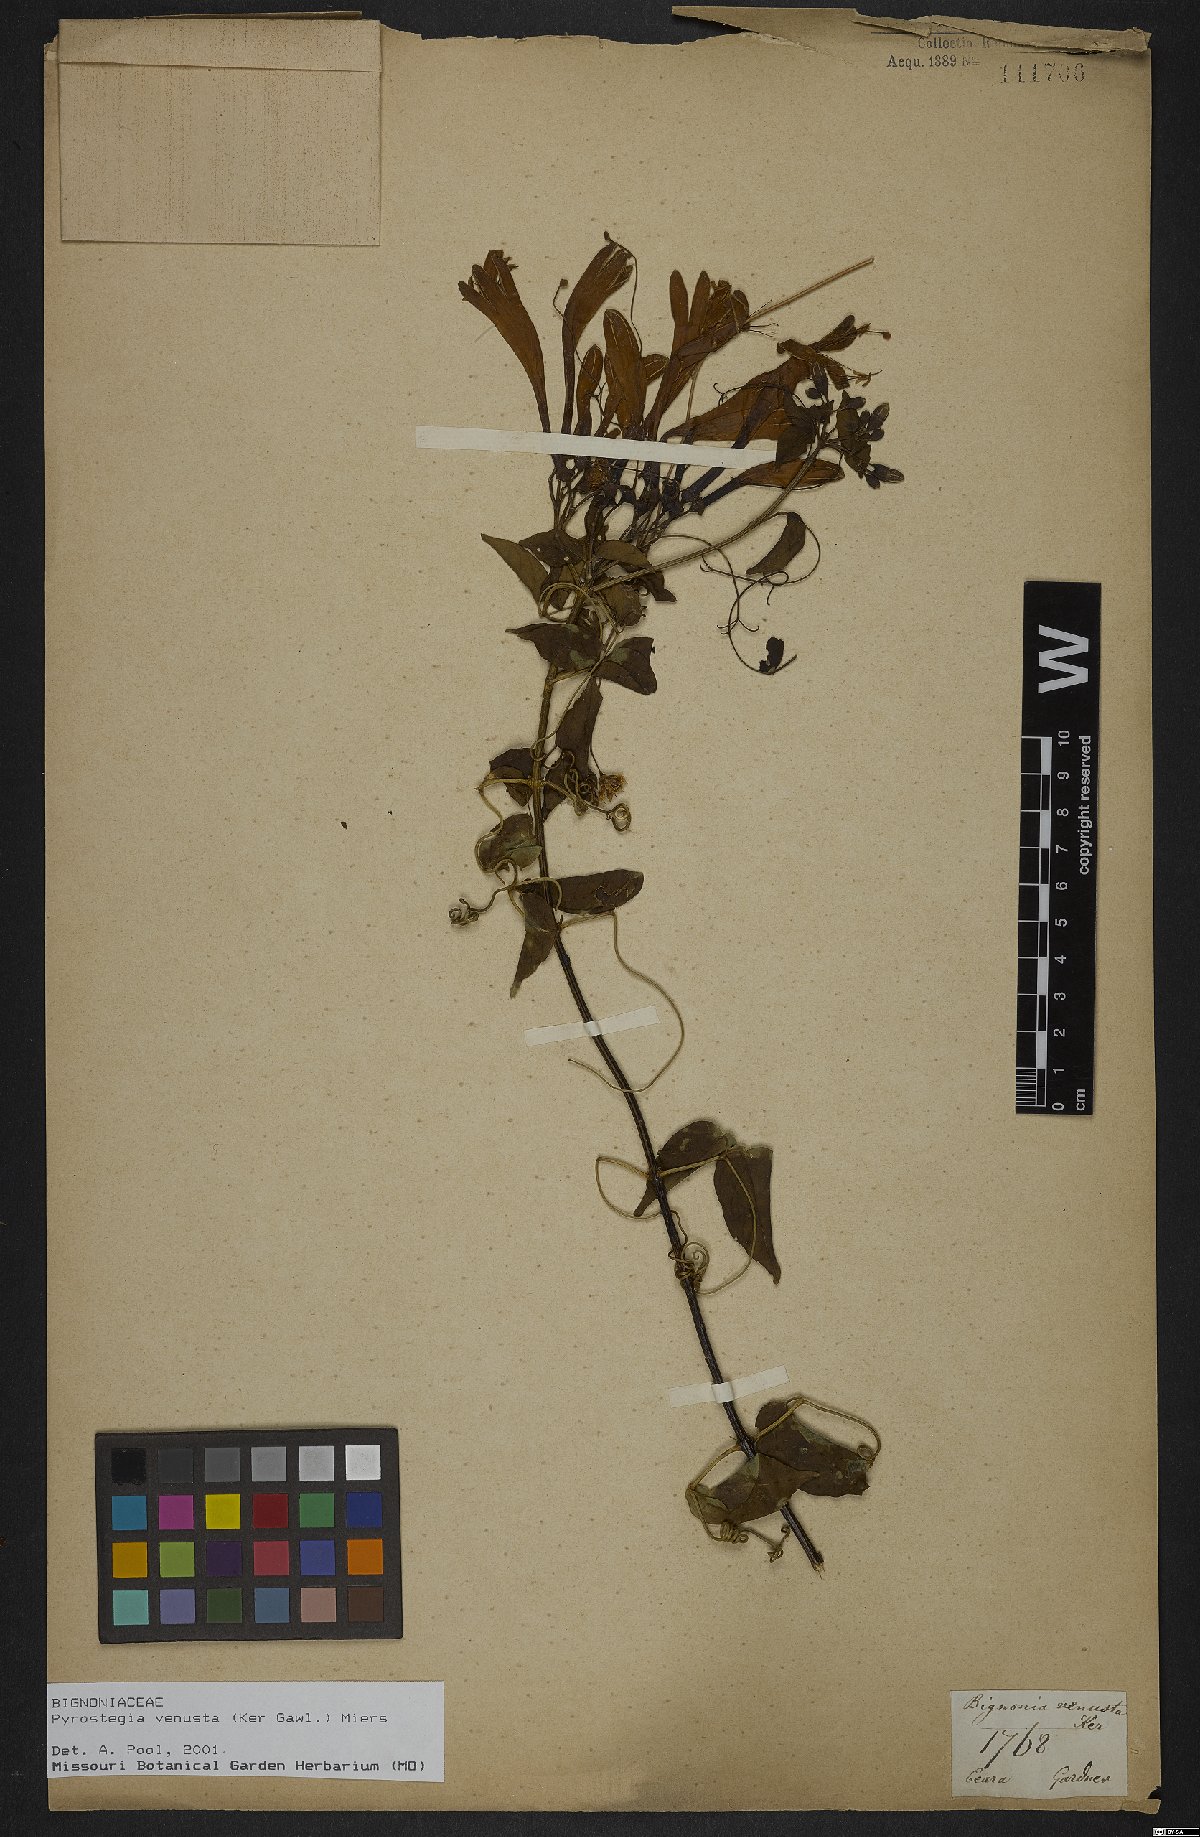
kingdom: Plantae
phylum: Tracheophyta
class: Magnoliopsida
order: Lamiales
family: Bignoniaceae
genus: Pyrostegia
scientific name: Pyrostegia venusta
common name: Flamevine
